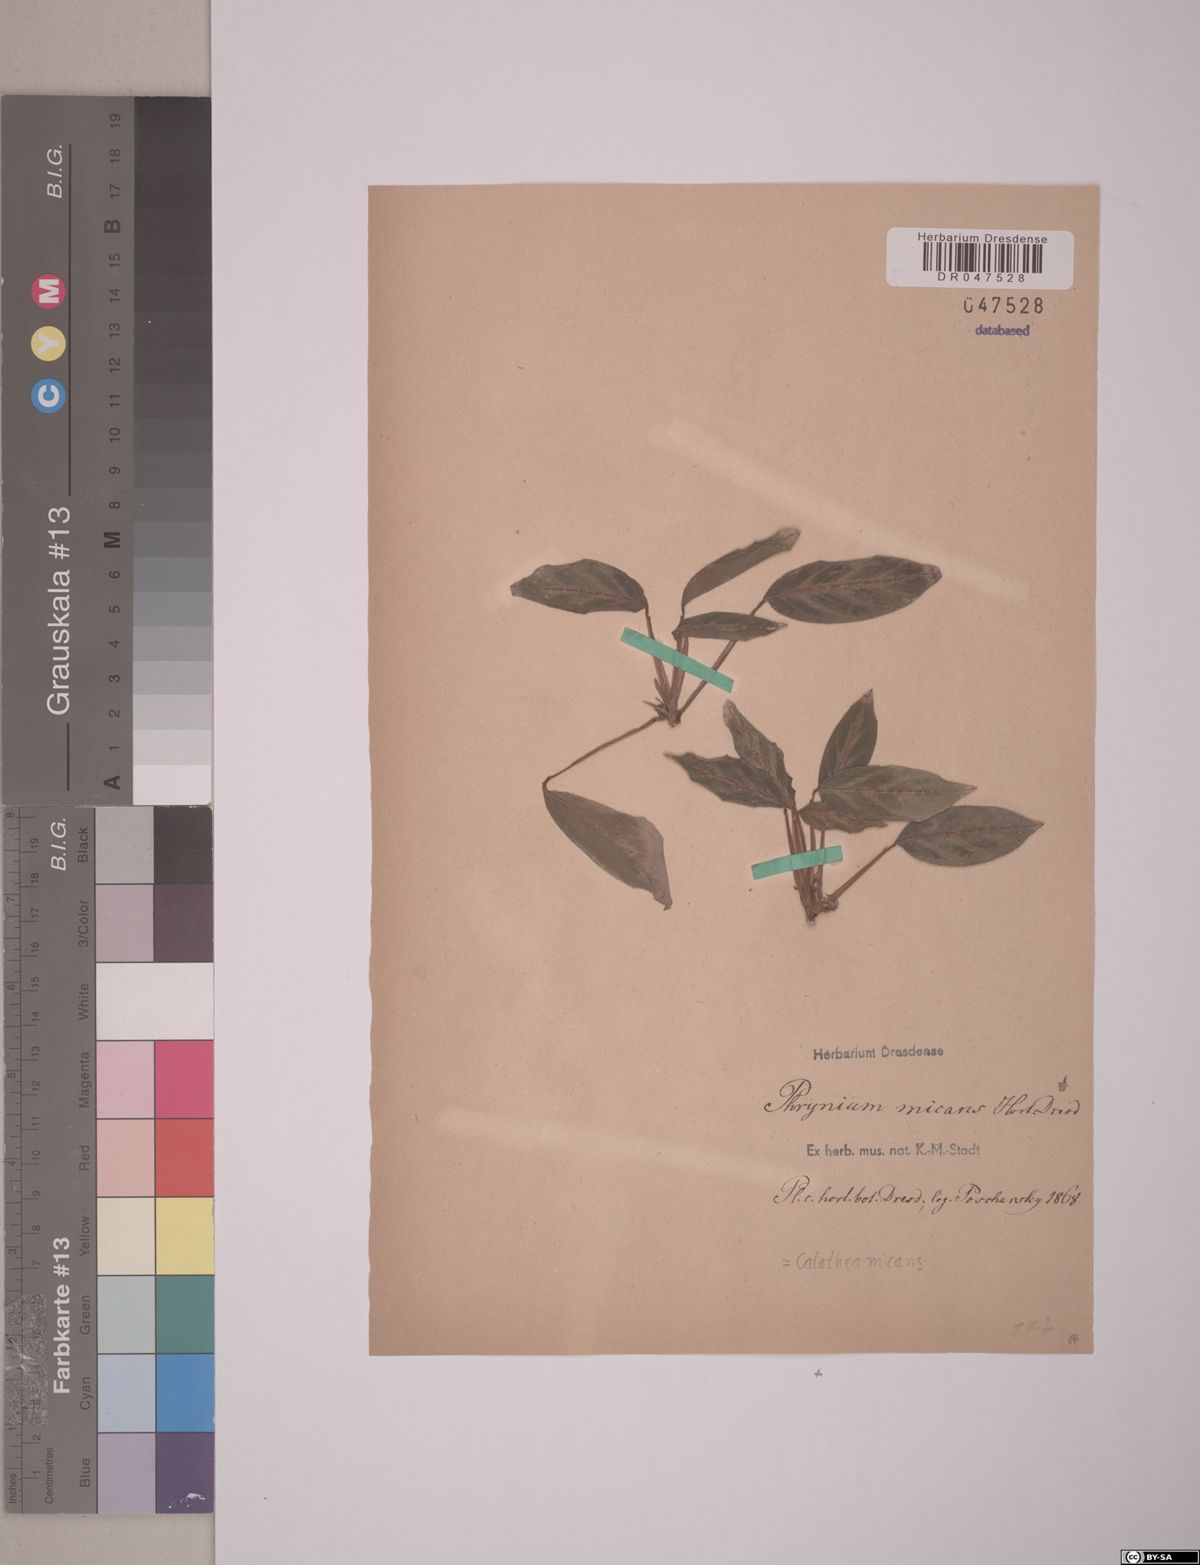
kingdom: Plantae
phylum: Tracheophyta
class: Liliopsida
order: Zingiberales
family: Marantaceae
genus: Goeppertia
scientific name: Goeppertia micans
